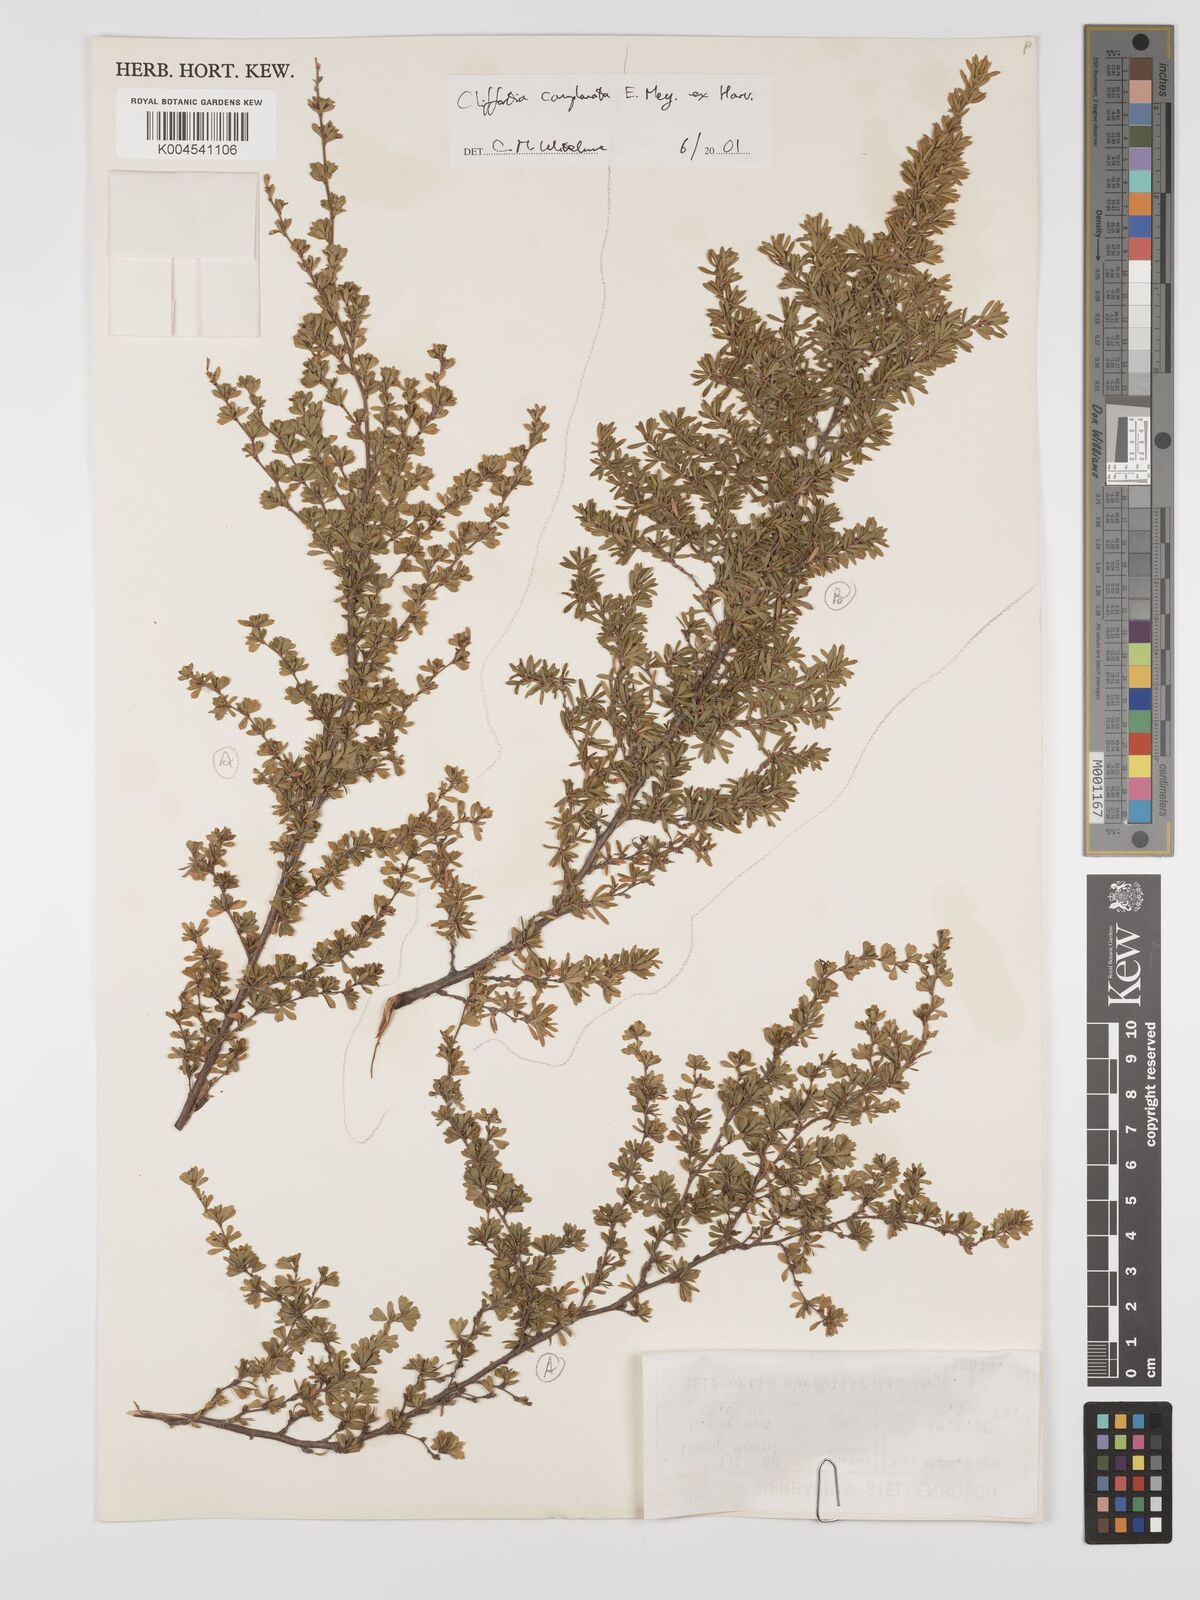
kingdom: Plantae
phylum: Tracheophyta
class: Magnoliopsida
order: Rosales
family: Rosaceae
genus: Cliffortia
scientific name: Cliffortia complanata
